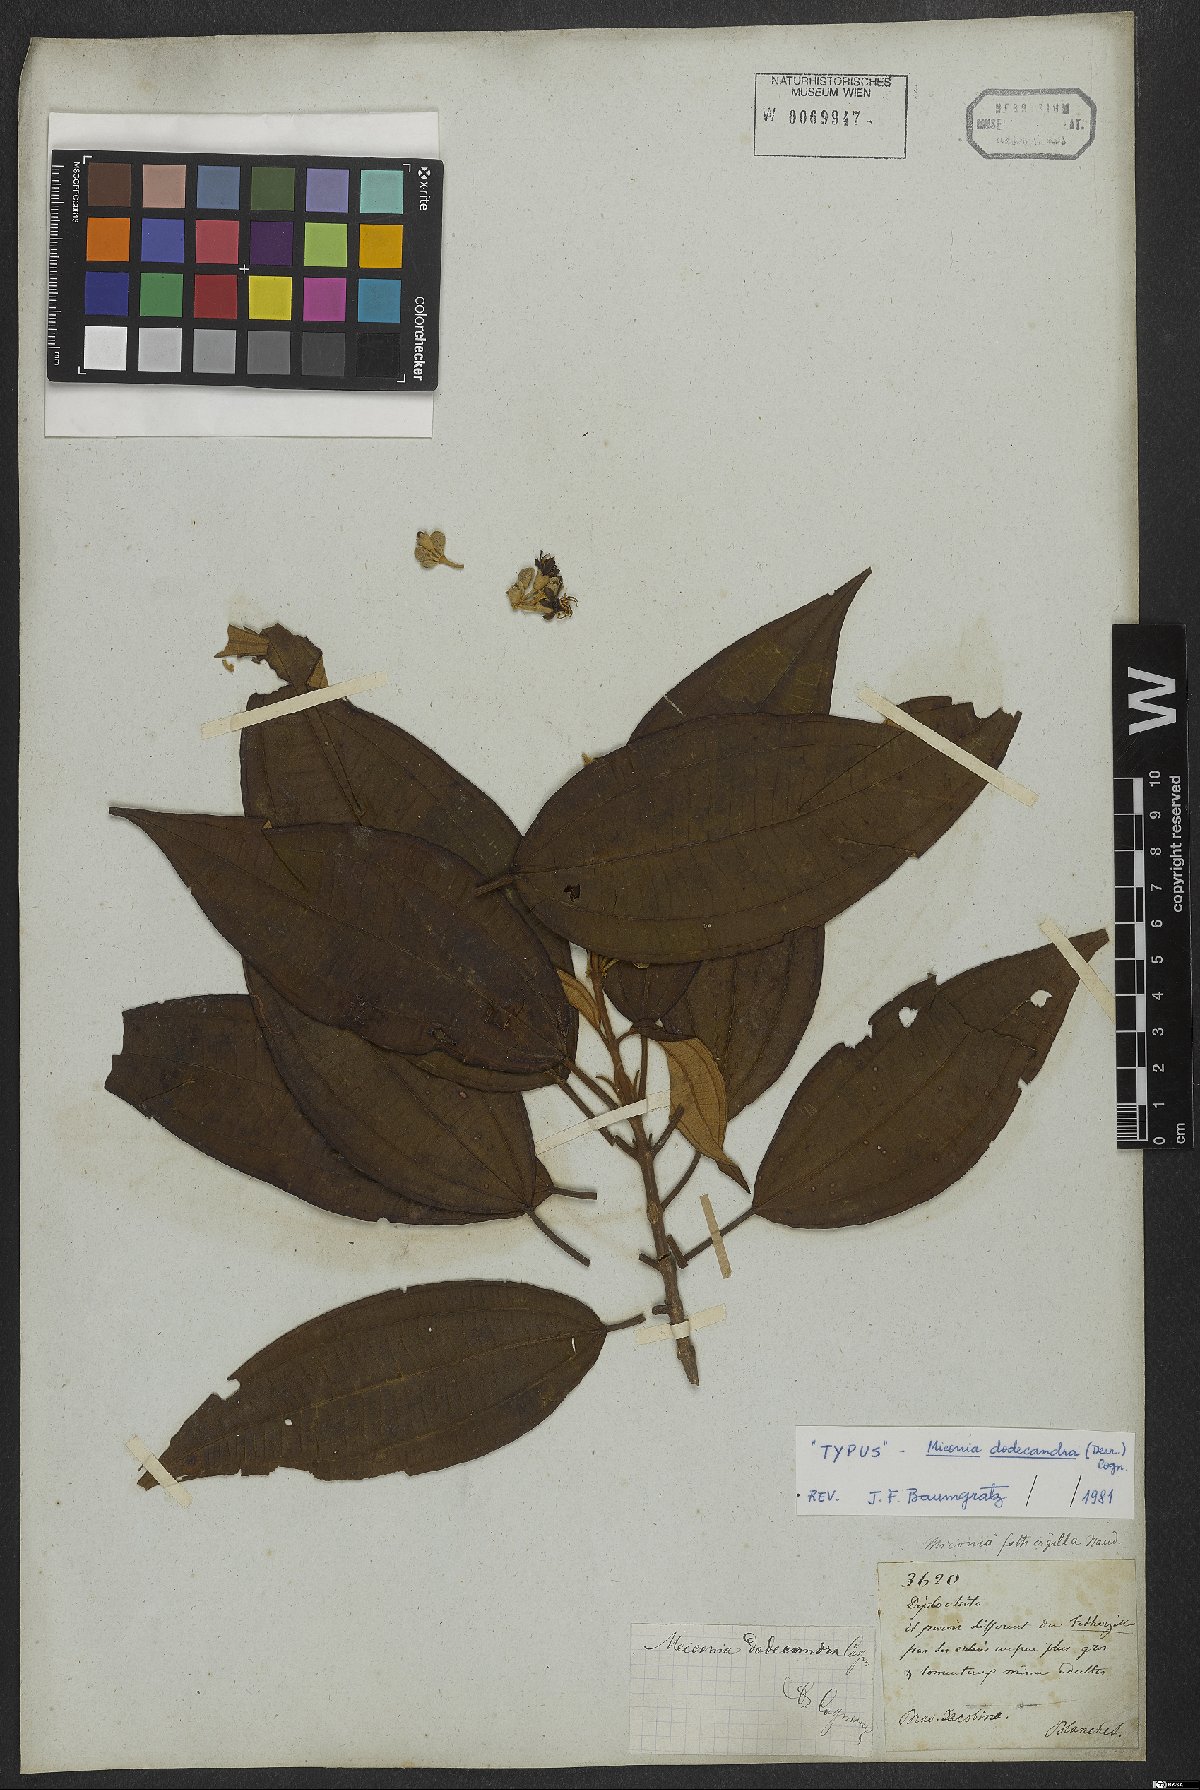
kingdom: Plantae
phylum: Tracheophyta
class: Magnoliopsida
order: Myrtales
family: Melastomataceae
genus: Miconia
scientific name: Miconia dodecandra
